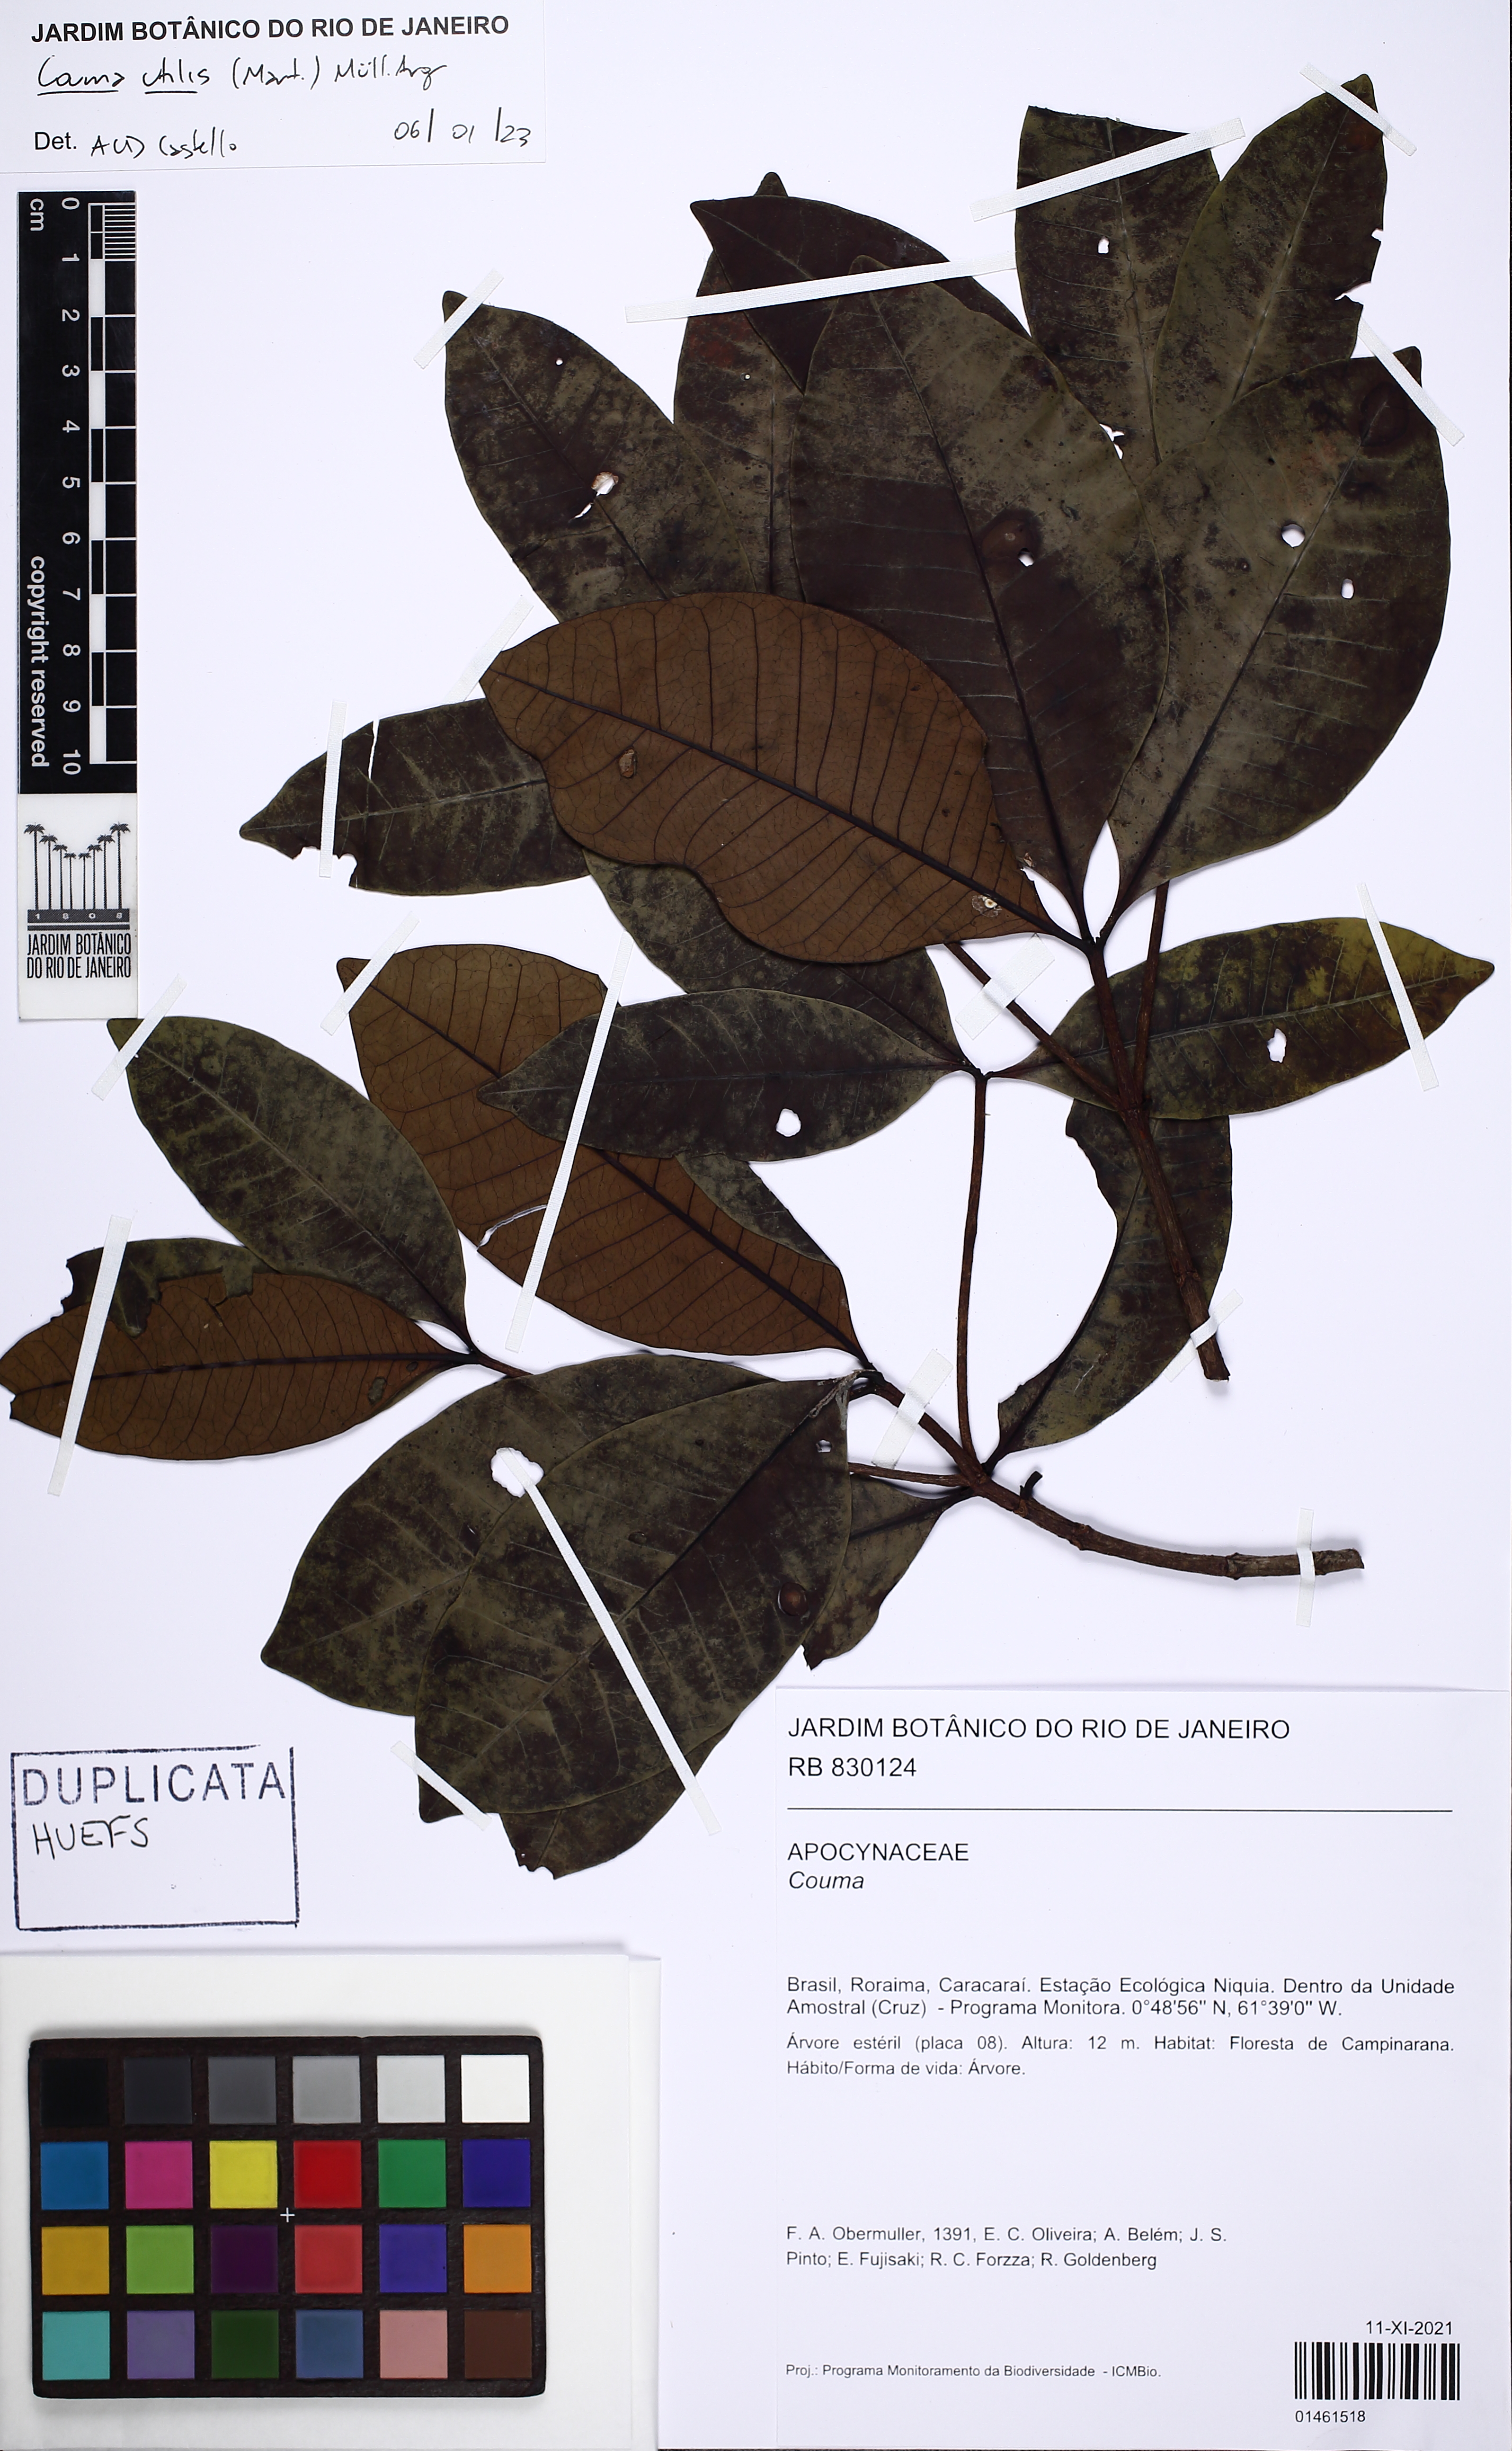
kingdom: Plantae
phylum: Tracheophyta
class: Magnoliopsida
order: Gentianales
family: Apocynaceae
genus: Couma
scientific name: Couma utilis
